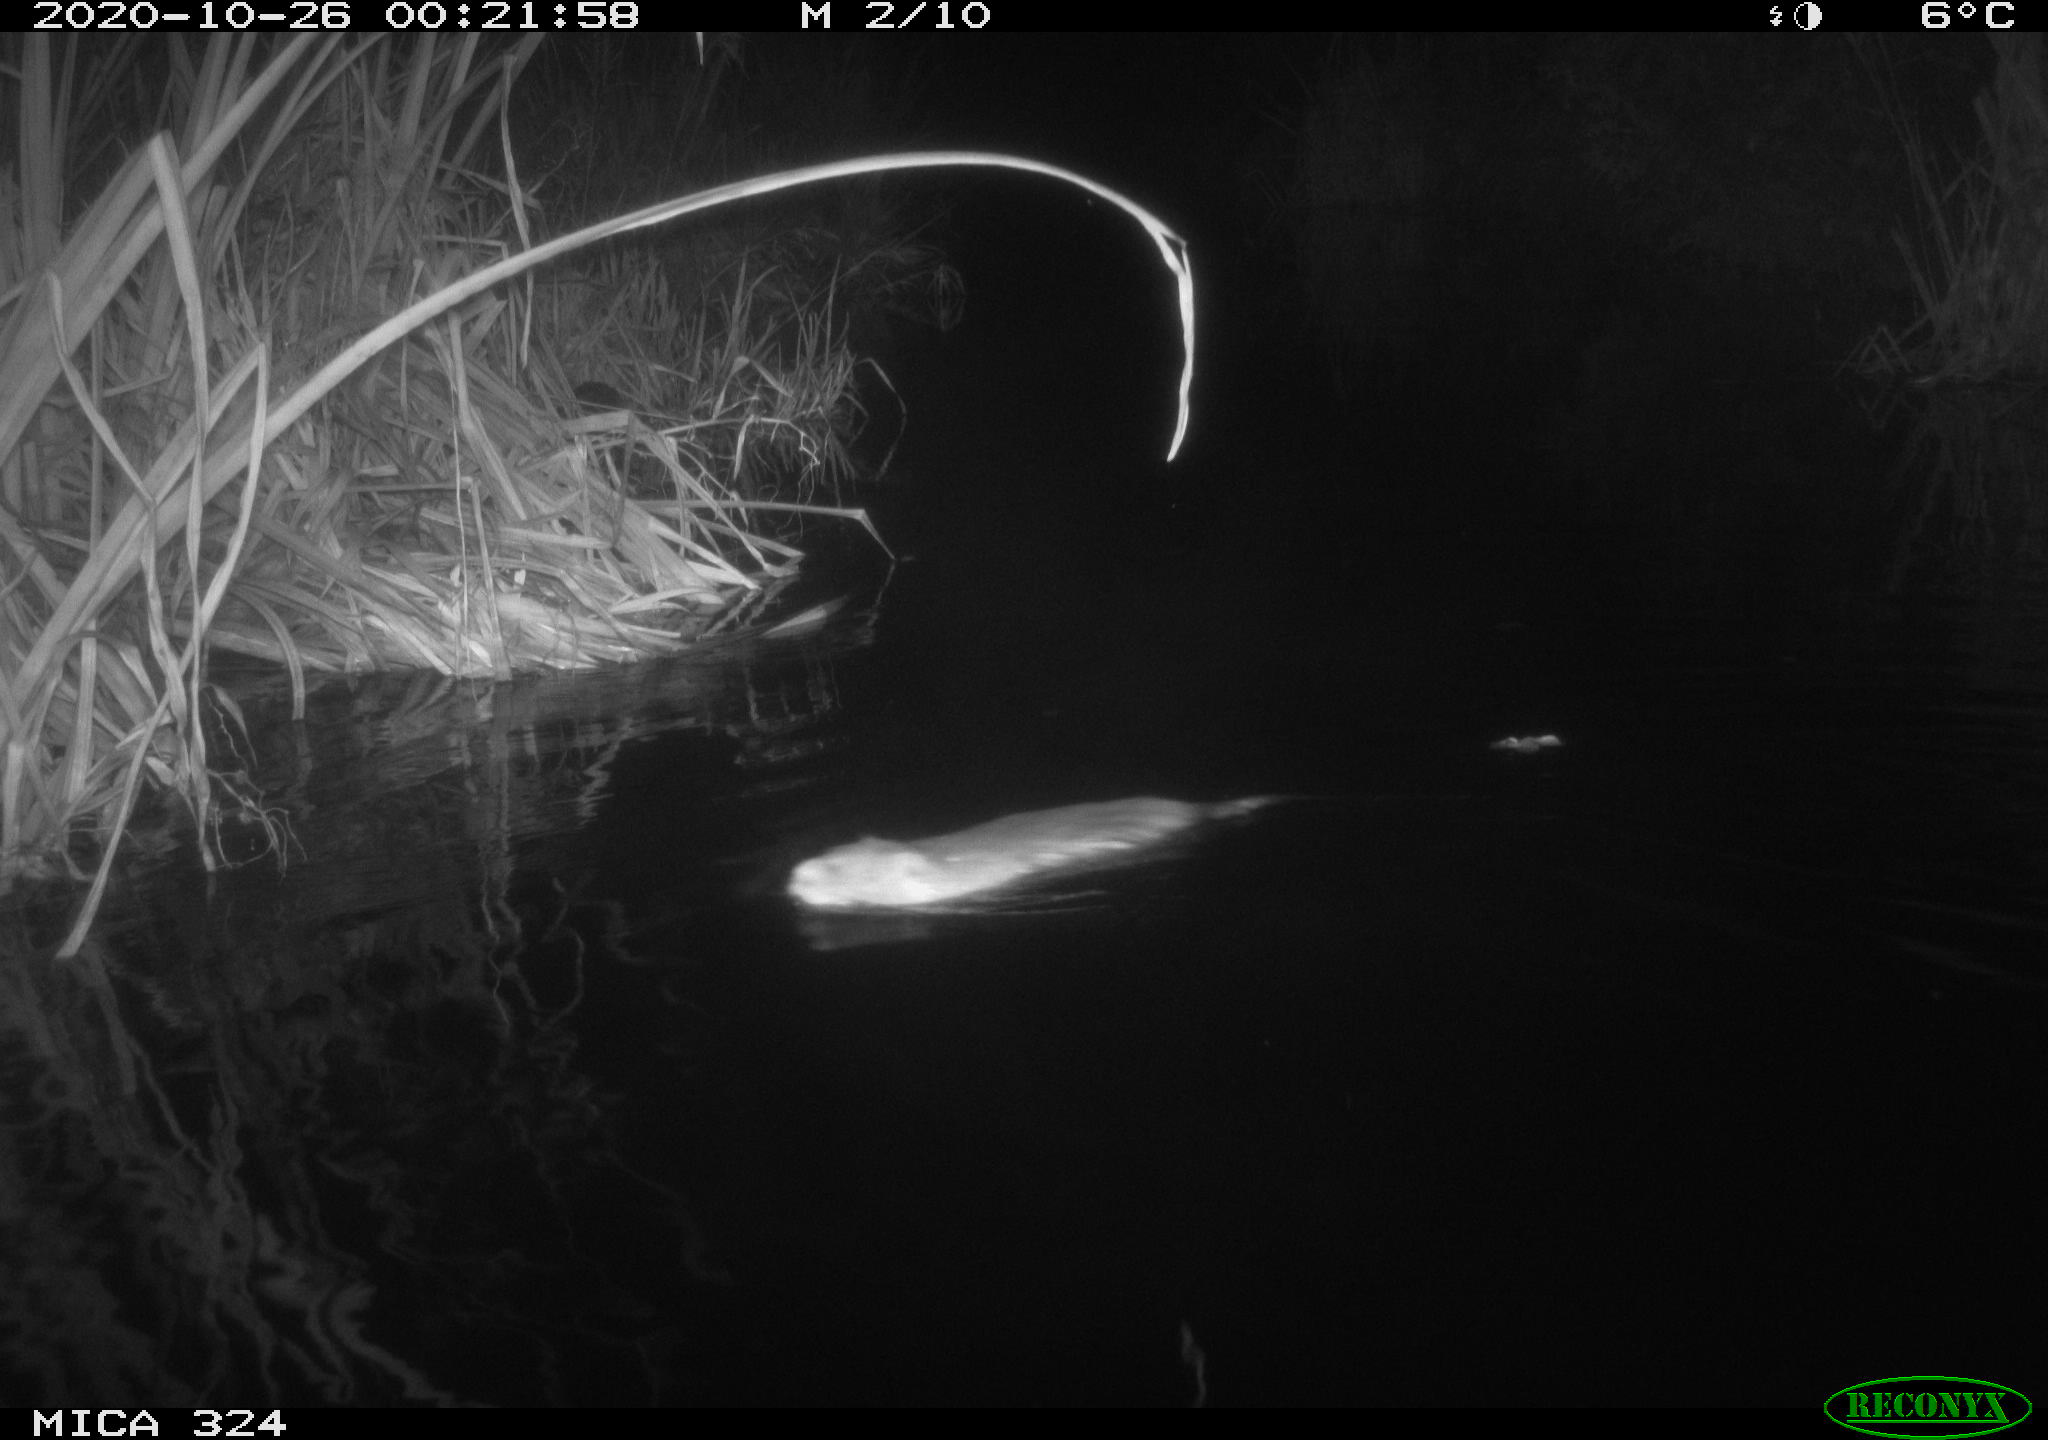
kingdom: Animalia
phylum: Chordata
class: Mammalia
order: Rodentia
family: Myocastoridae
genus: Myocastor
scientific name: Myocastor coypus
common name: Coypu
